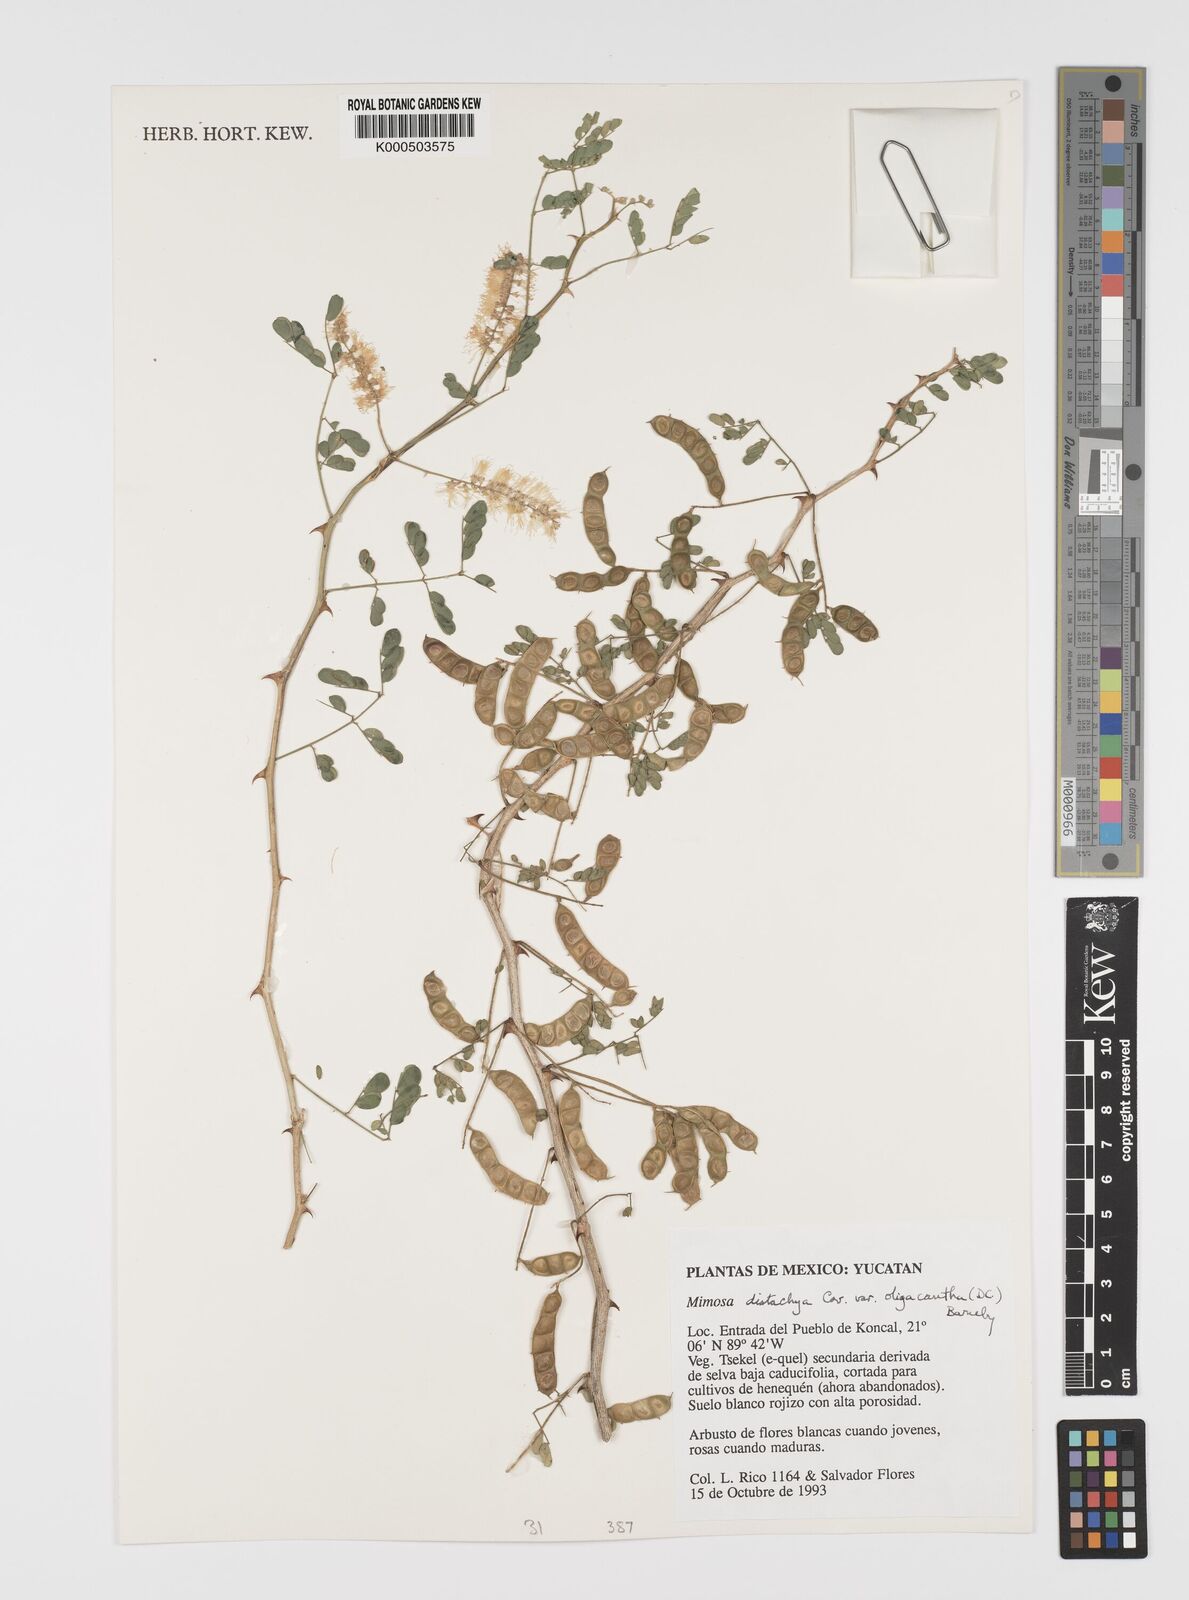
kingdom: Plantae
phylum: Tracheophyta
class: Magnoliopsida
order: Fabales
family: Fabaceae
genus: Mimosa
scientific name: Mimosa distachya
